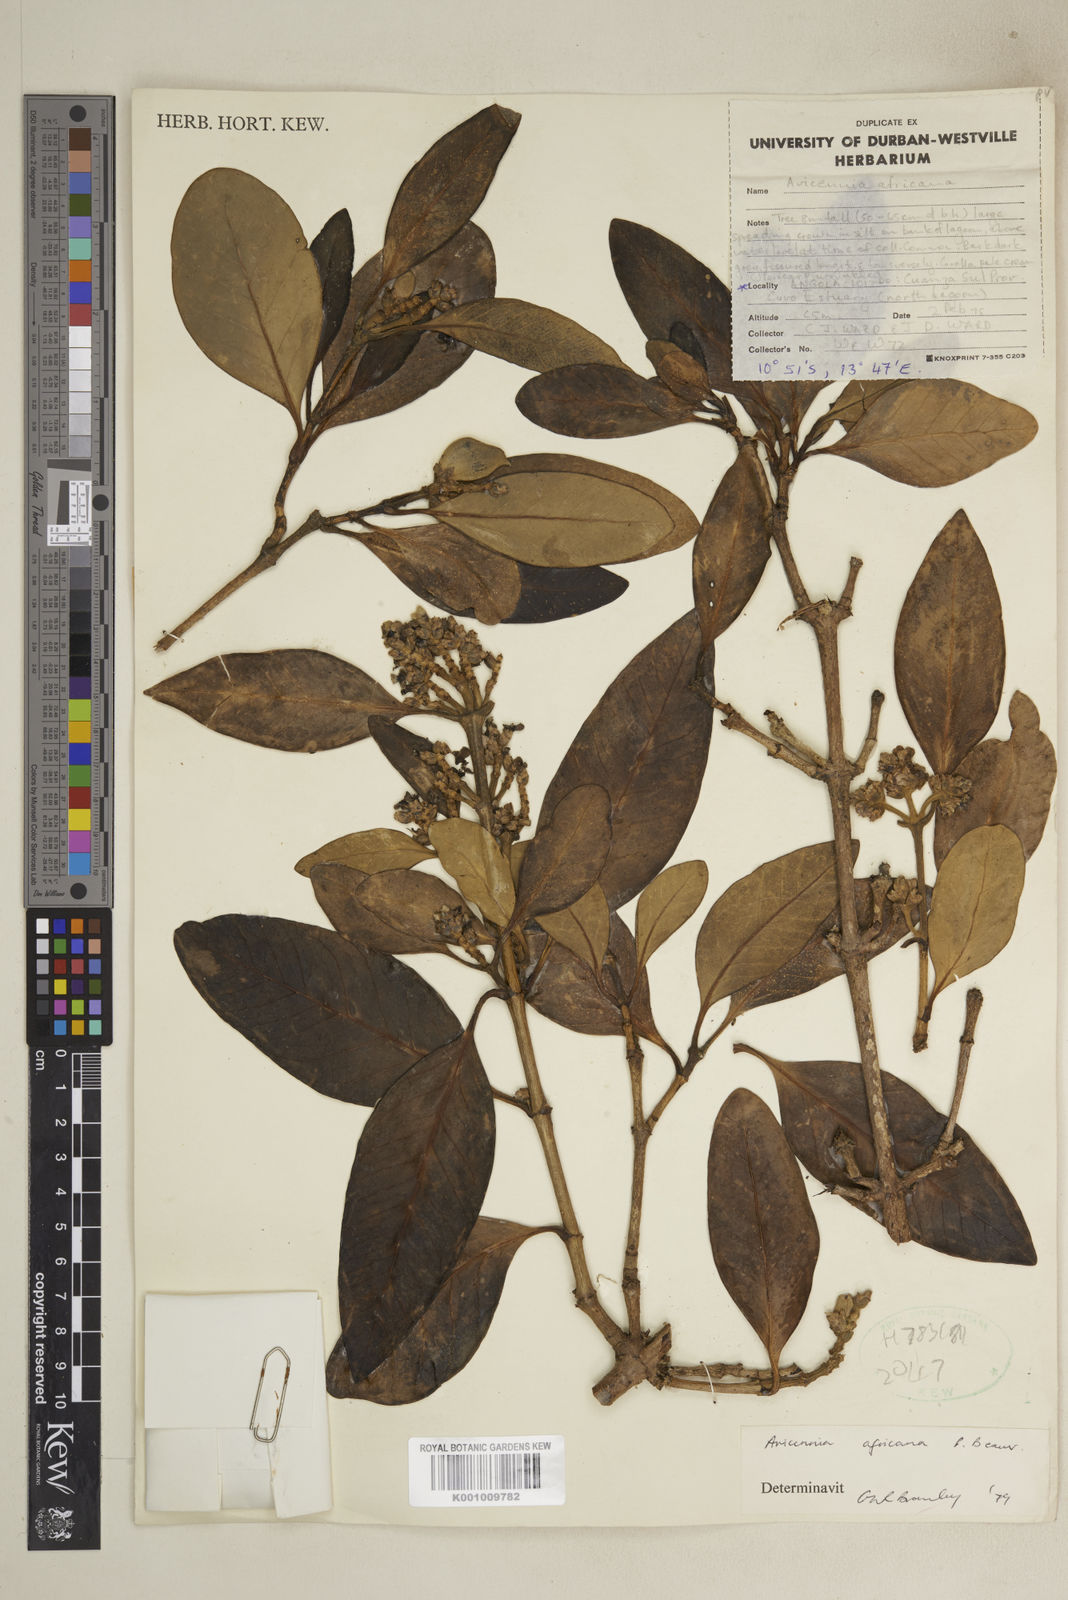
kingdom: Plantae
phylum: Tracheophyta
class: Magnoliopsida
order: Lamiales
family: Acanthaceae
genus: Avicennia
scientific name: Avicennia germinans
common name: Black mangrove
